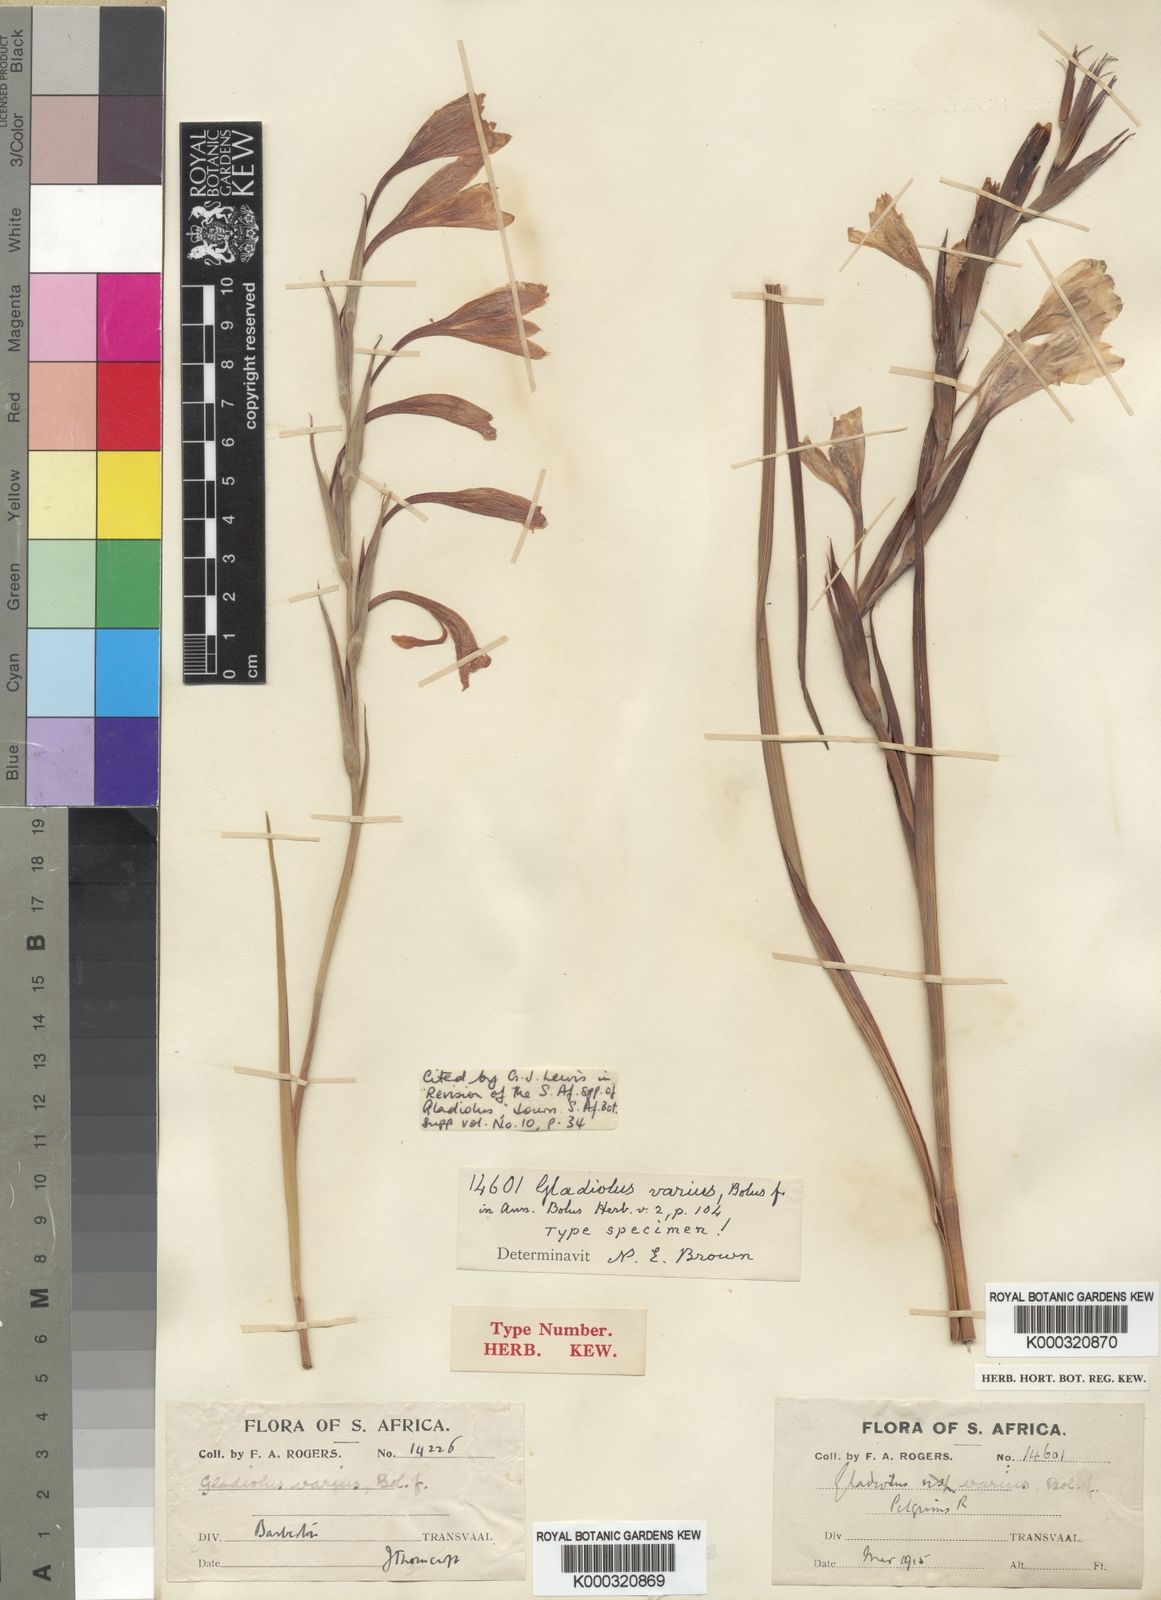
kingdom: Plantae
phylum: Tracheophyta
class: Liliopsida
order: Asparagales
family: Iridaceae
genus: Gladiolus
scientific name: Gladiolus varius
